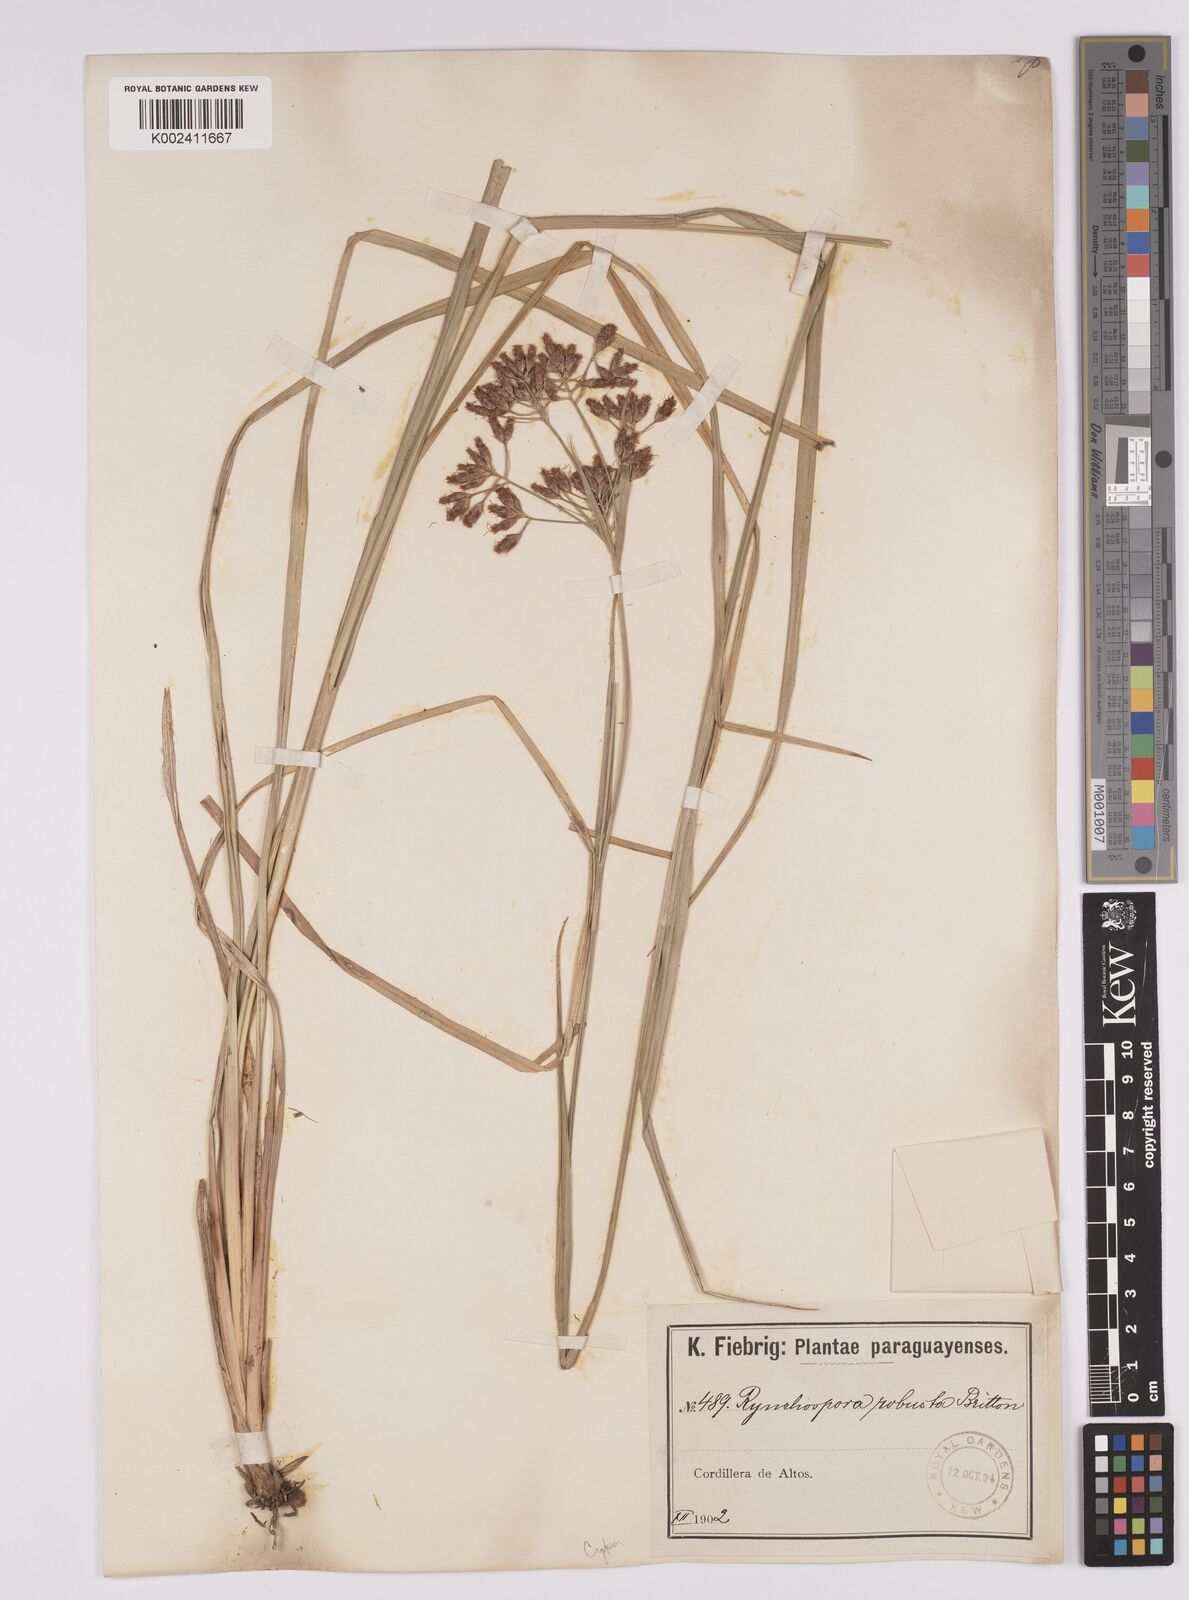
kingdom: Plantae
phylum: Tracheophyta
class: Liliopsida
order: Poales
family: Cyperaceae
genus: Rhynchospora
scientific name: Rhynchospora robusta
